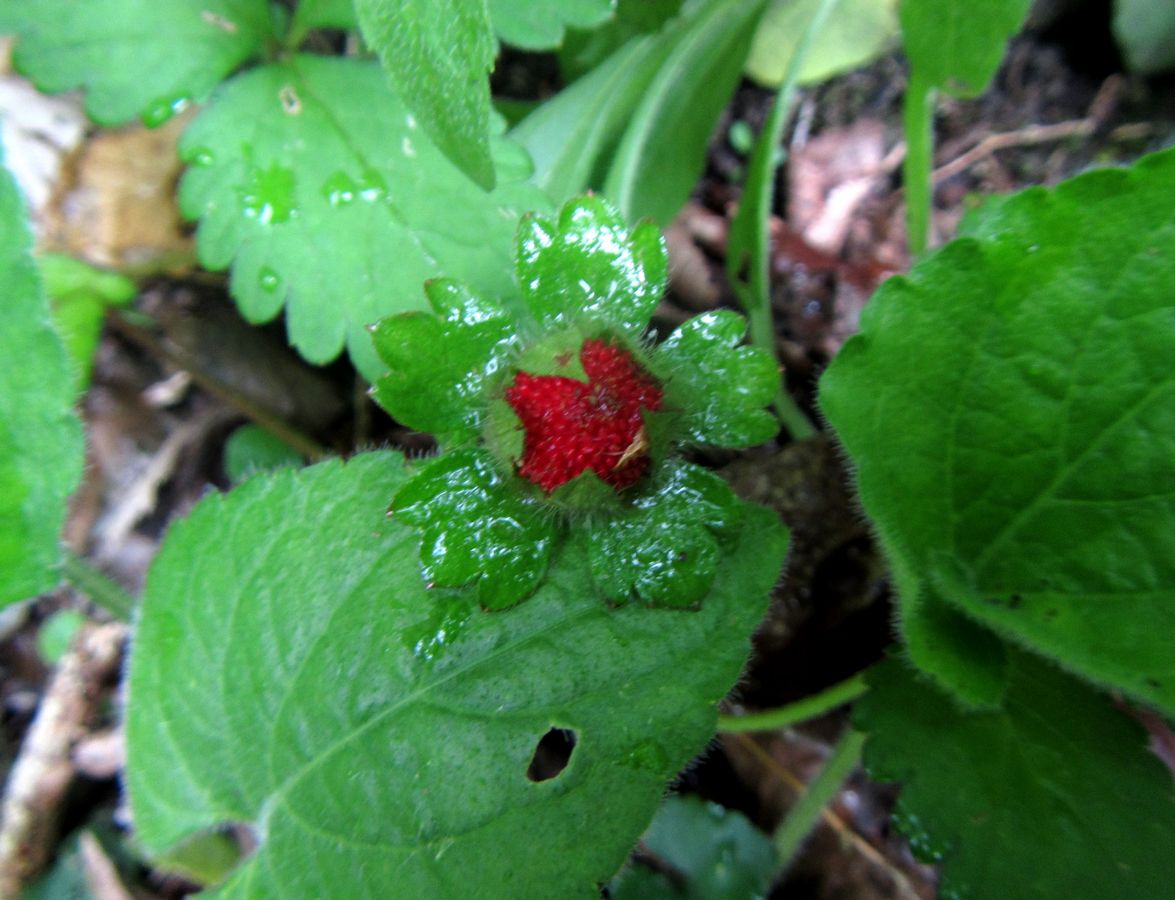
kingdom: Plantae
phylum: Tracheophyta
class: Magnoliopsida
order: Rosales
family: Rosaceae
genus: Potentilla
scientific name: Potentilla indica
